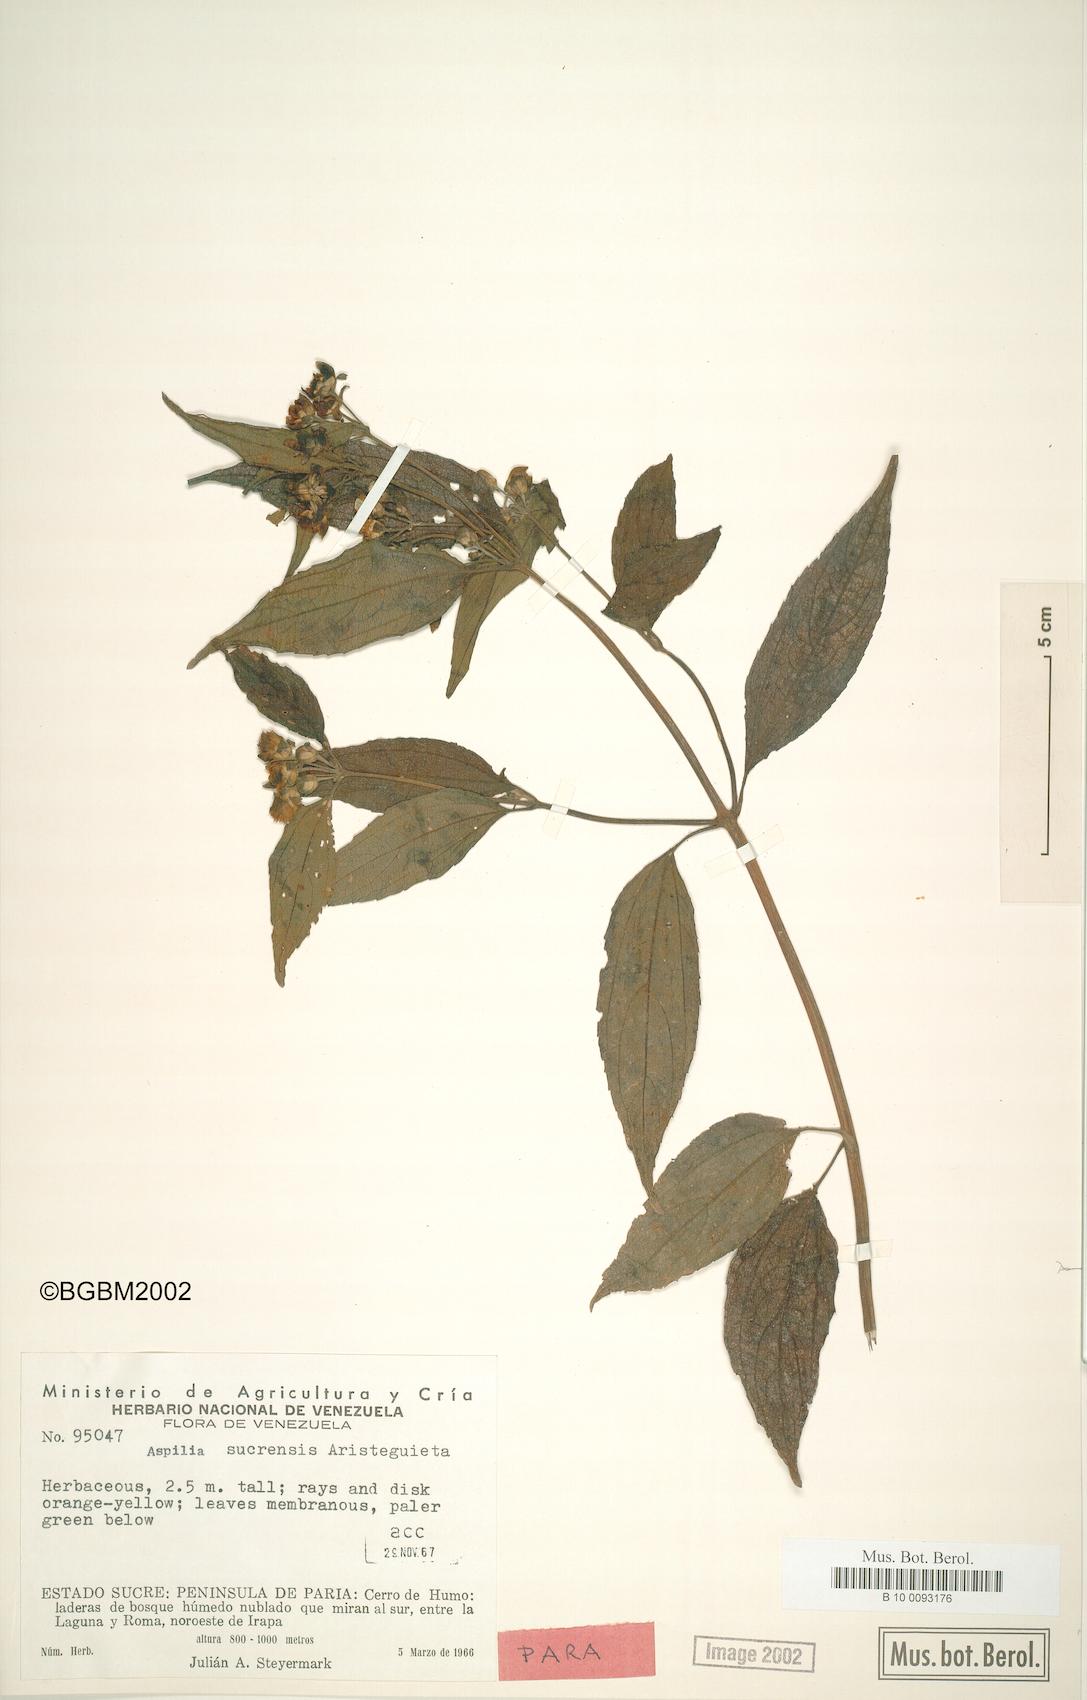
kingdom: Plantae
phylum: Tracheophyta
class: Magnoliopsida
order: Asterales
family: Asteraceae
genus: Elaphandra
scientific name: Elaphandra verbesinoides
